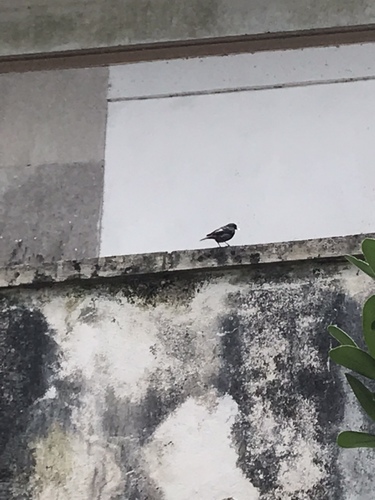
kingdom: Animalia
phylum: Chordata
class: Aves
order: Passeriformes
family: Muscicapidae
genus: Phoenicurus
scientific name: Phoenicurus ochruros
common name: Black redstart
